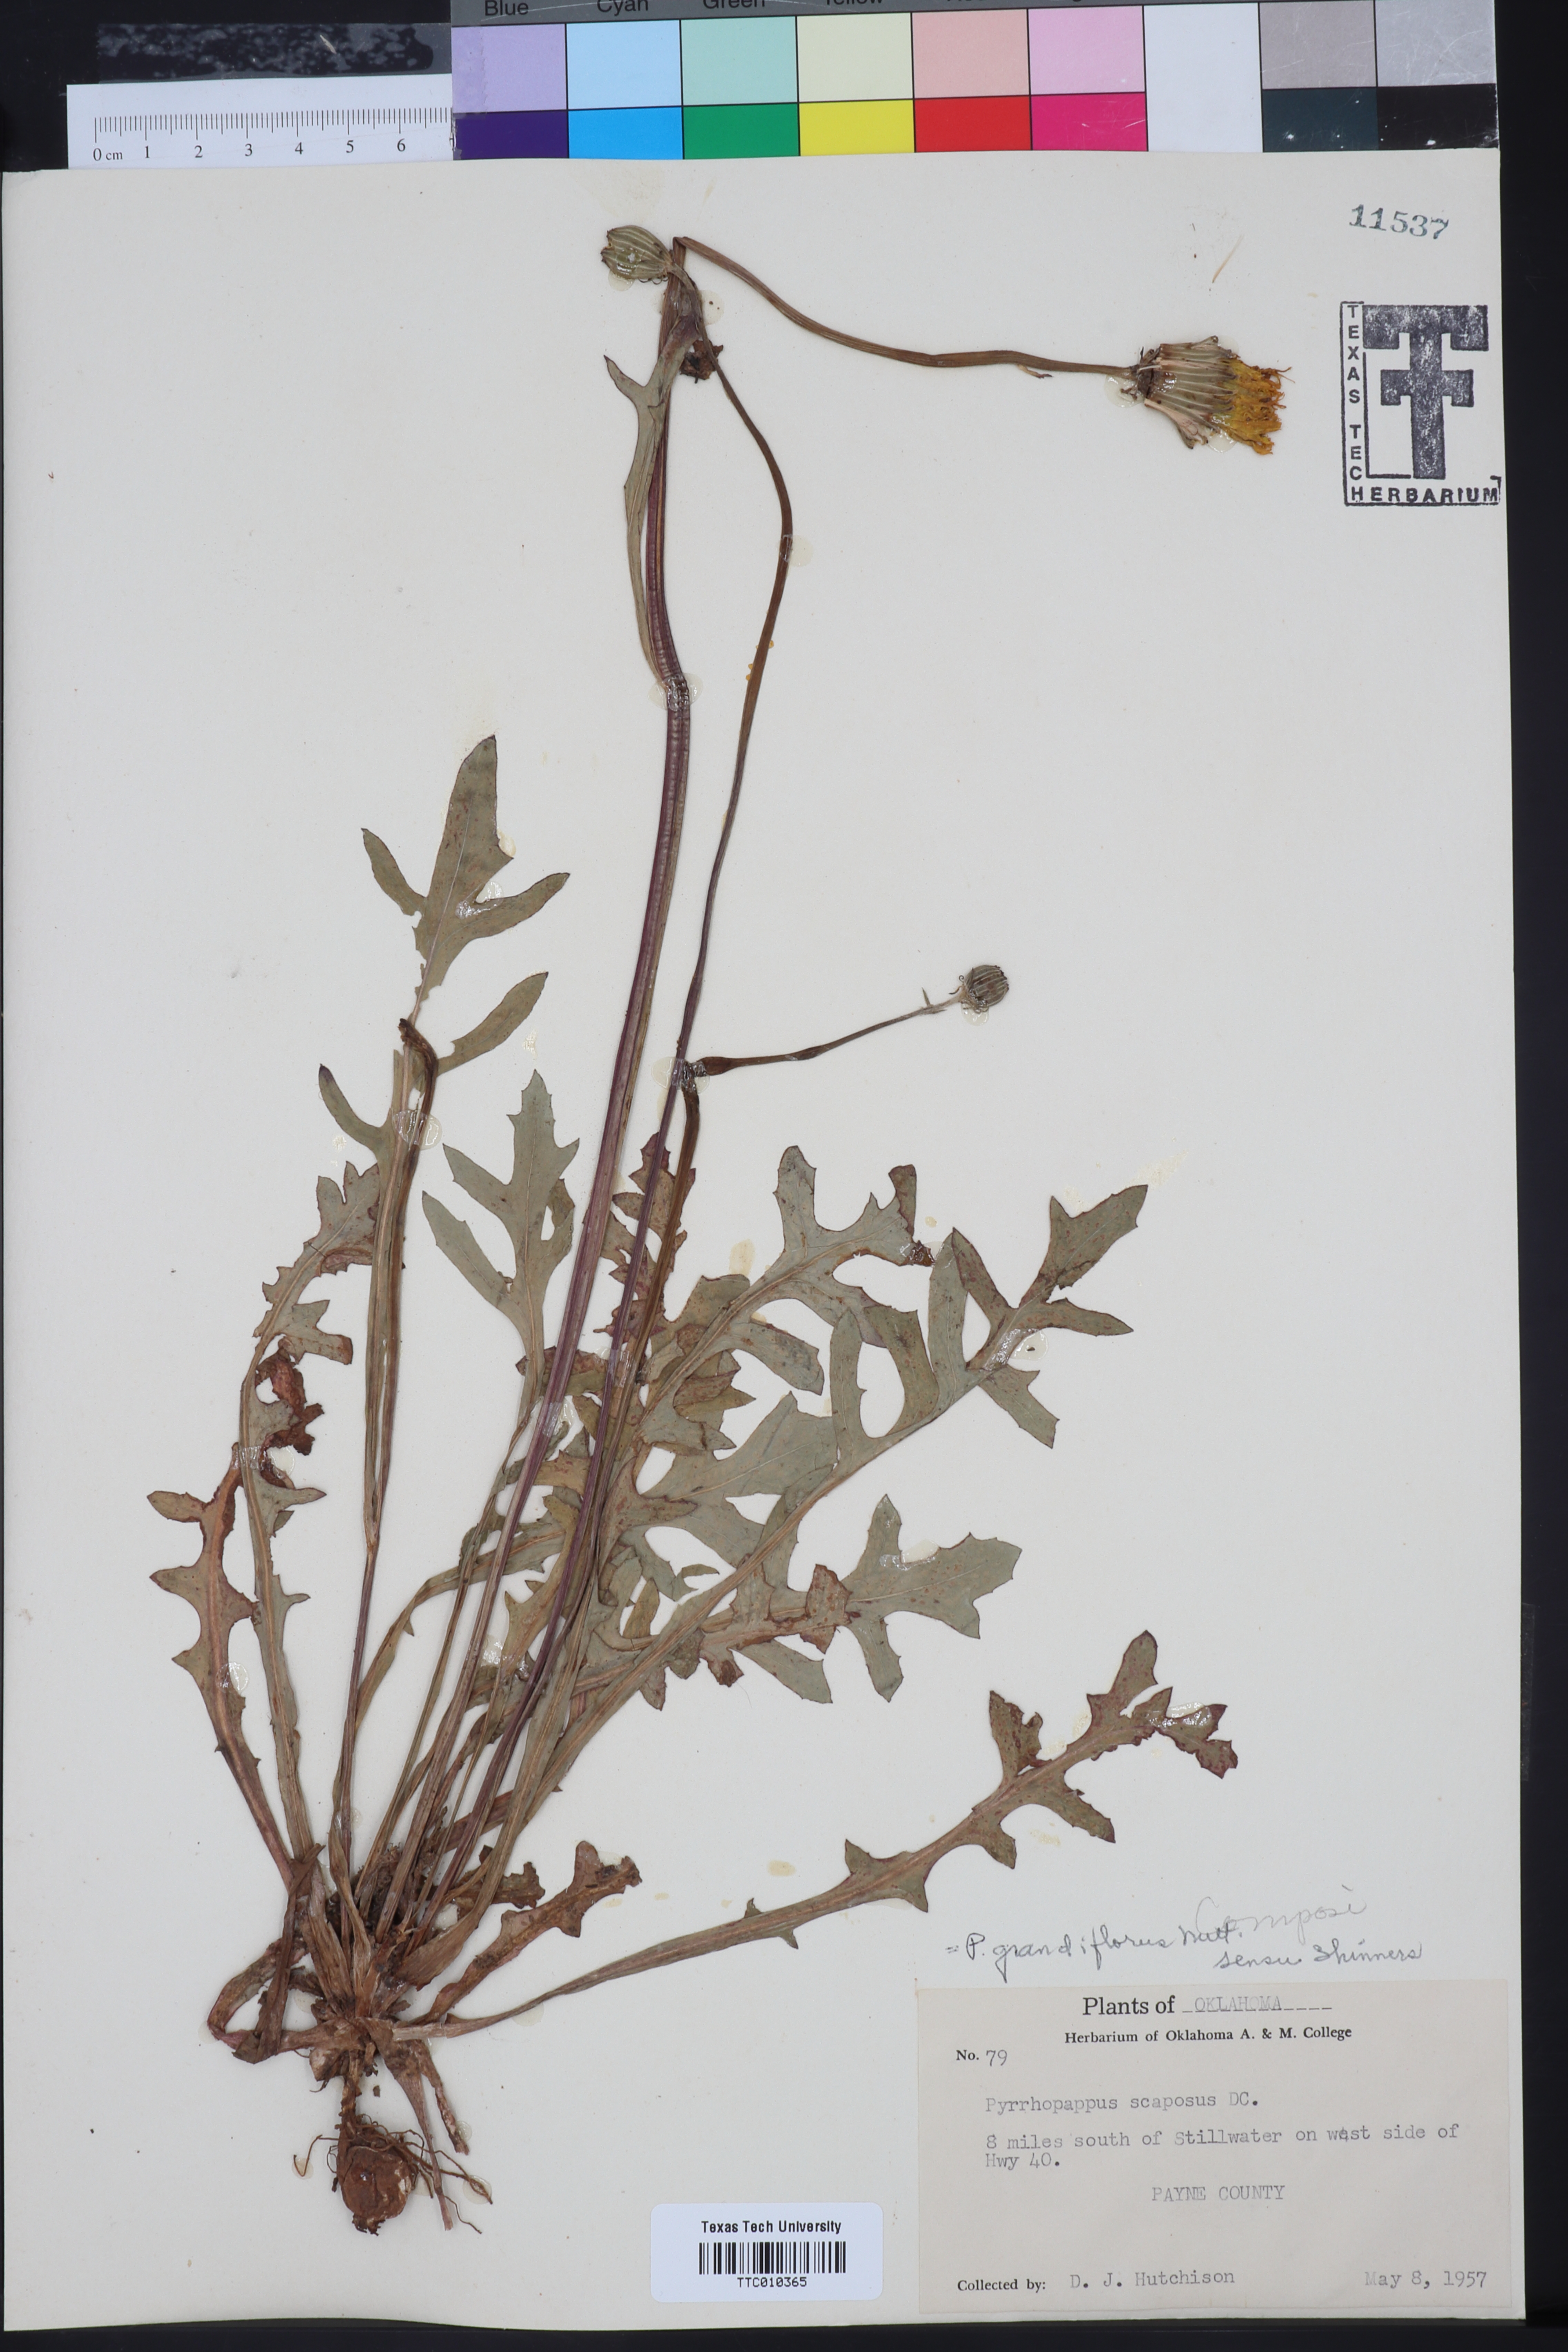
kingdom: Plantae
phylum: Tracheophyta
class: Magnoliopsida
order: Asterales
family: Asteraceae
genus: Pyrrhopappus
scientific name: Pyrrhopappus grandiflorus
